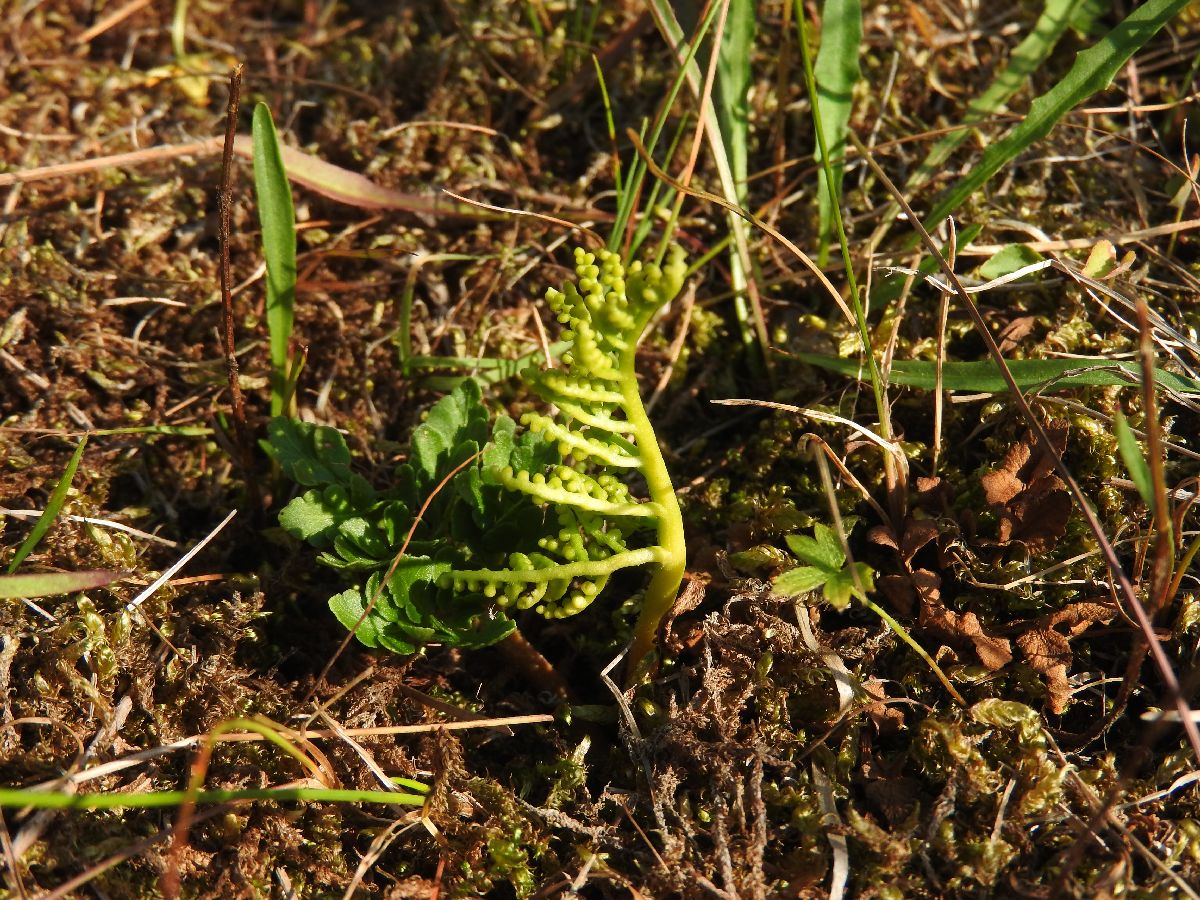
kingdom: Plantae
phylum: Tracheophyta
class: Polypodiopsida
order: Ophioglossales
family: Ophioglossaceae
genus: Sceptridium
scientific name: Sceptridium multifidum
